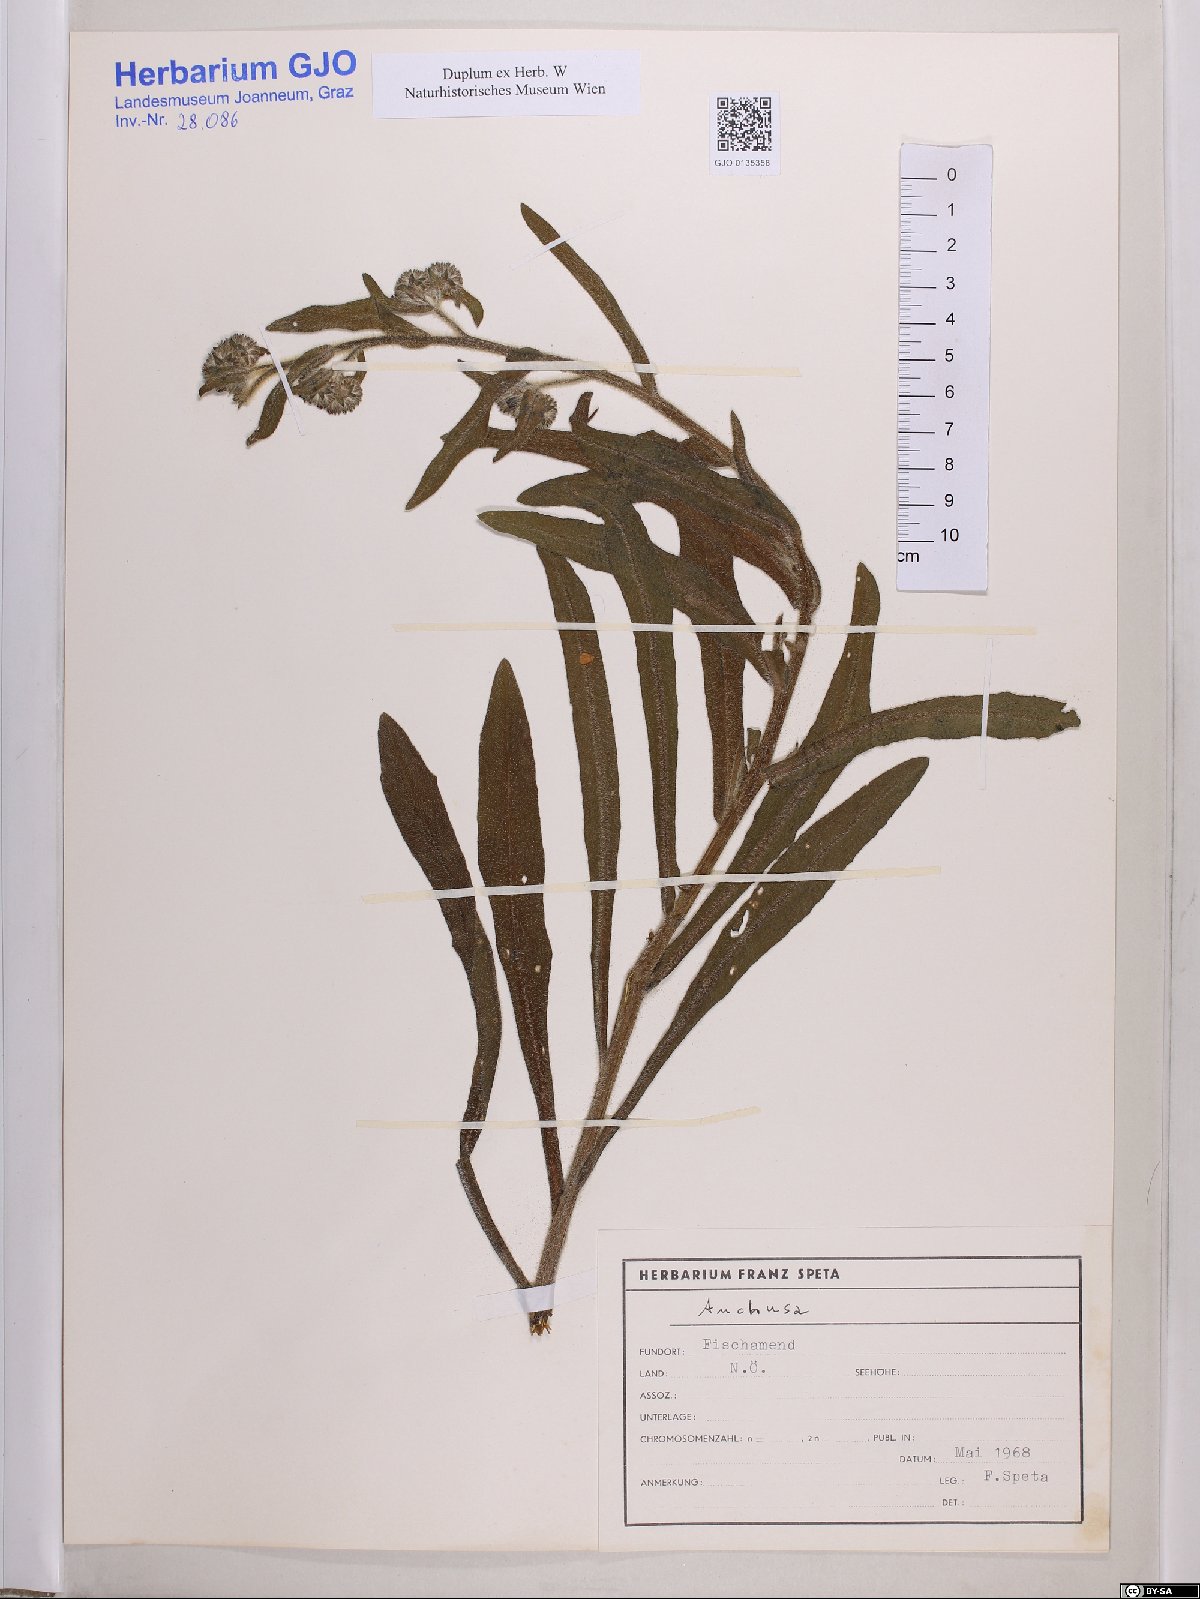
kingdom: Plantae
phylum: Tracheophyta
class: Magnoliopsida
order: Boraginales
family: Boraginaceae
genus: Anchusa
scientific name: Anchusa
